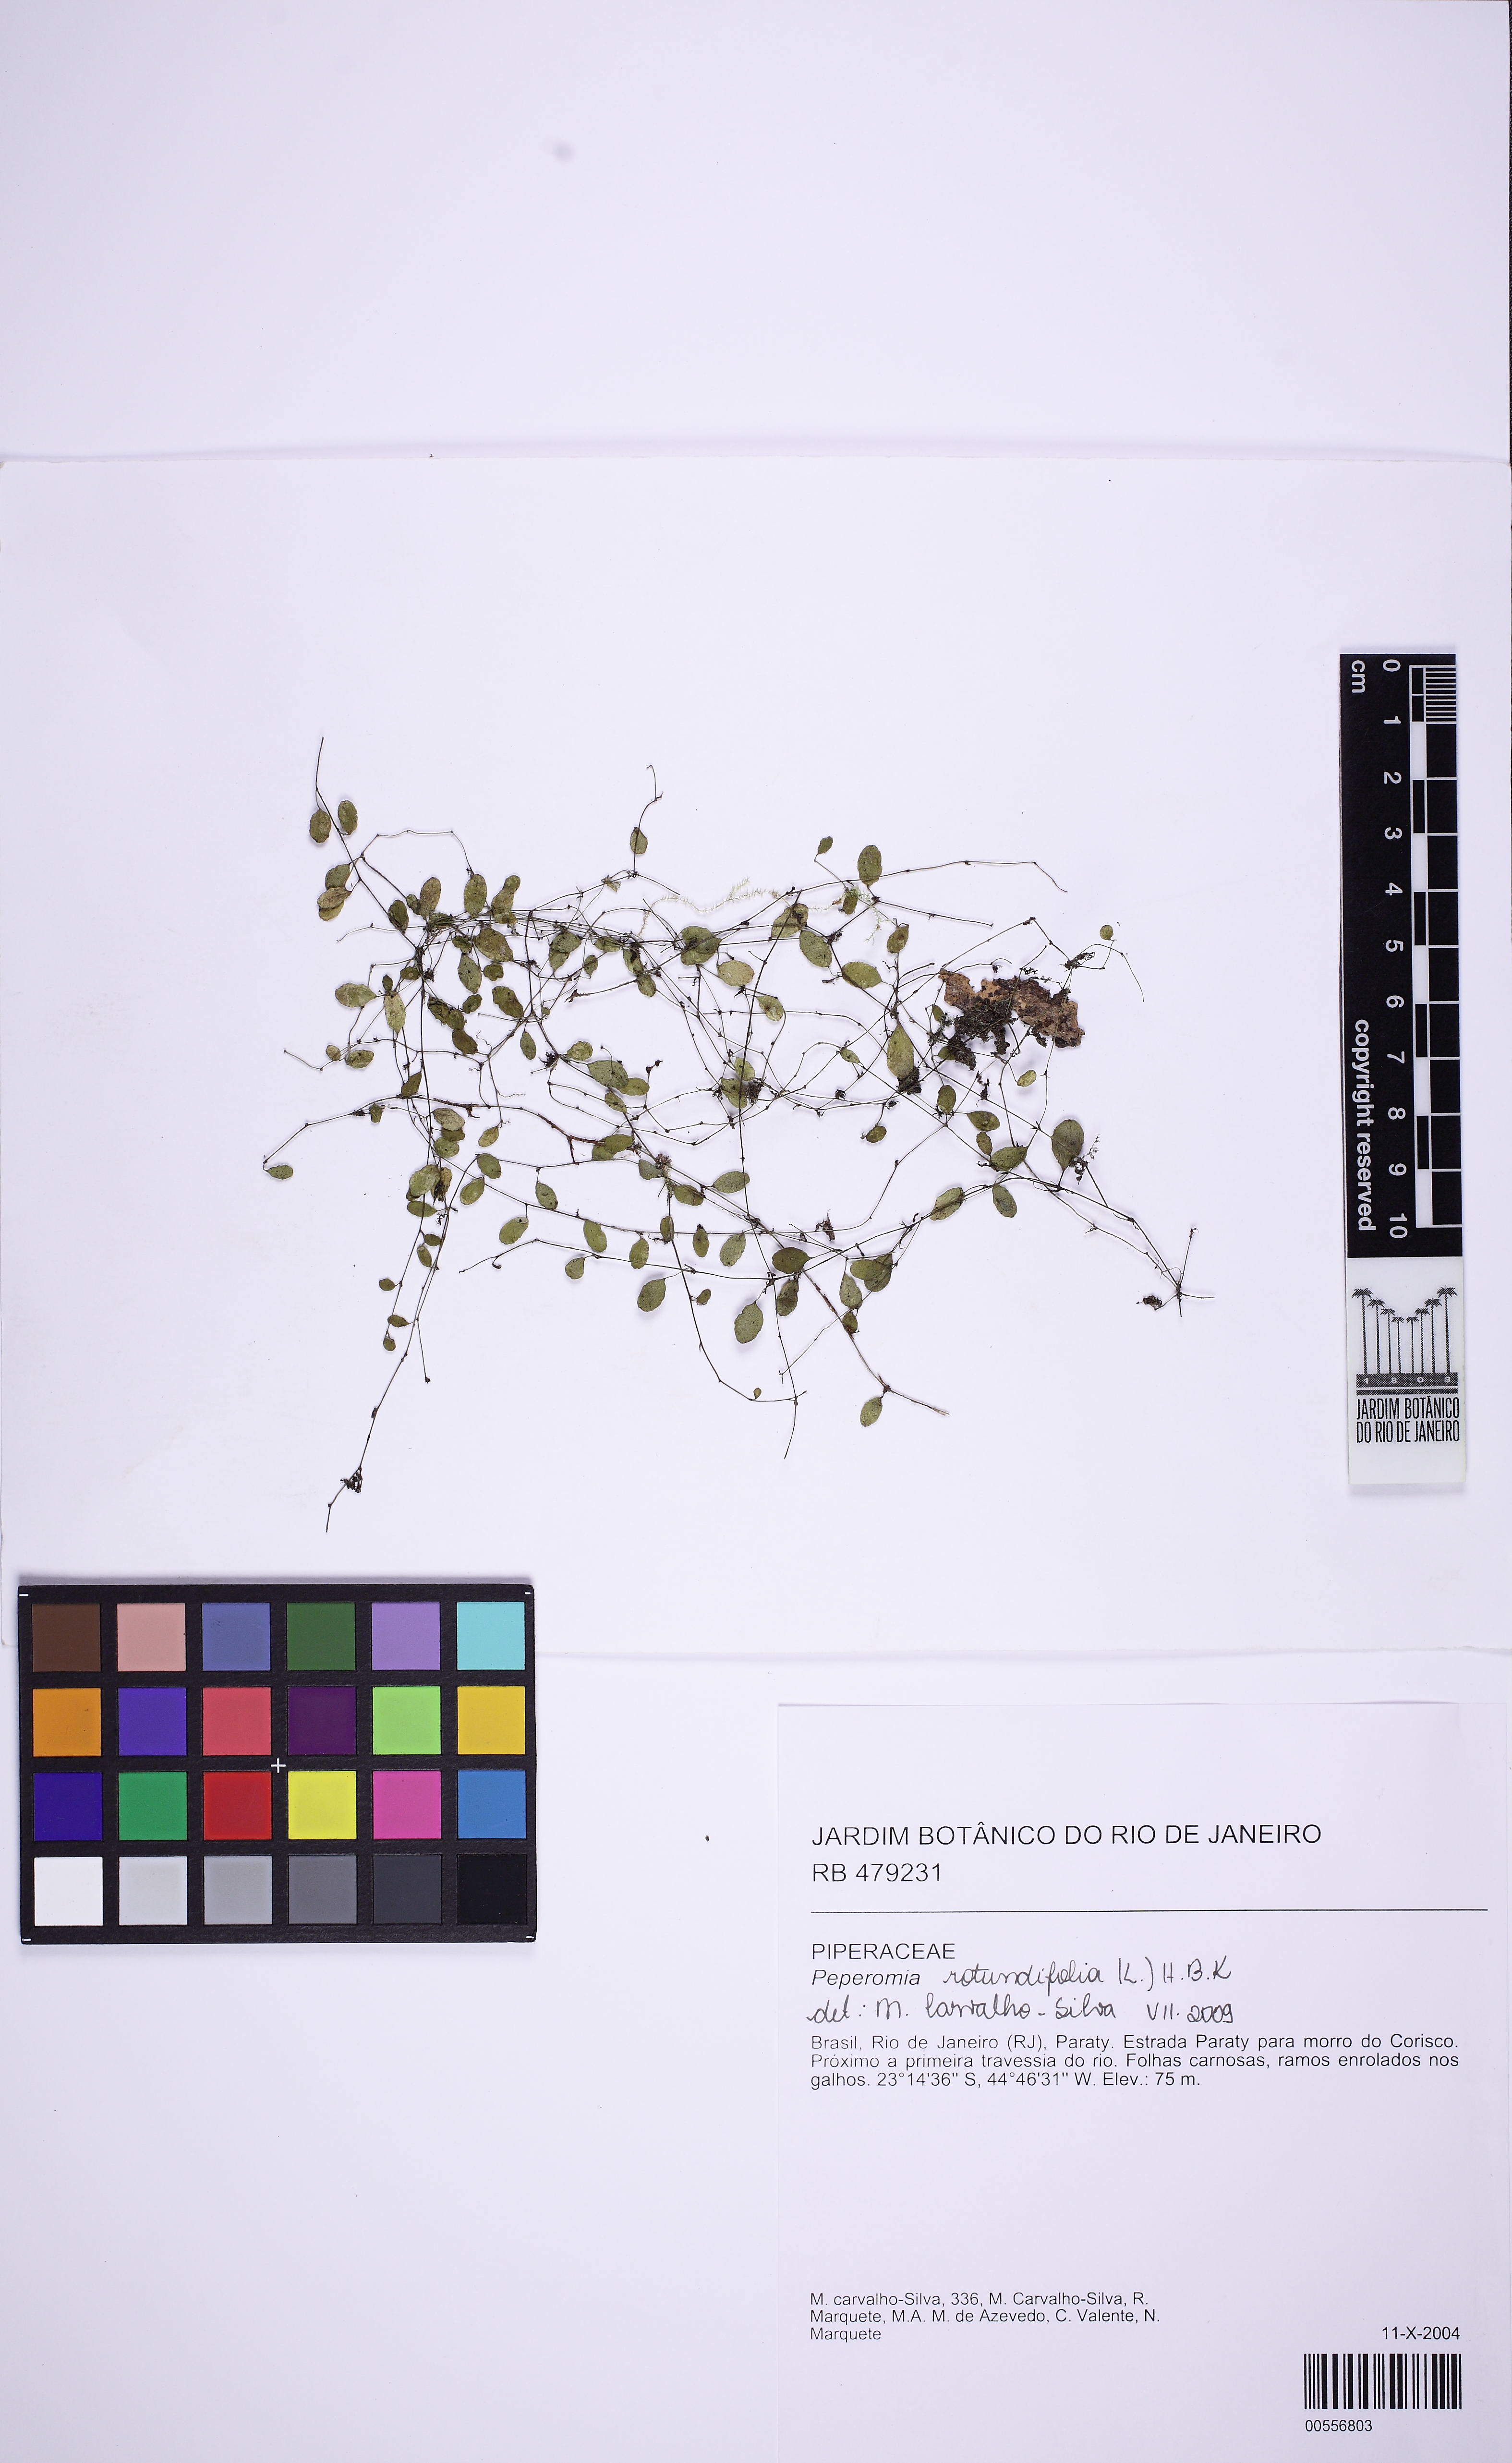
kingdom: Plantae
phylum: Tracheophyta
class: Magnoliopsida
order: Piperales
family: Piperaceae
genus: Peperomia
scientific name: Peperomia rotundifolia
